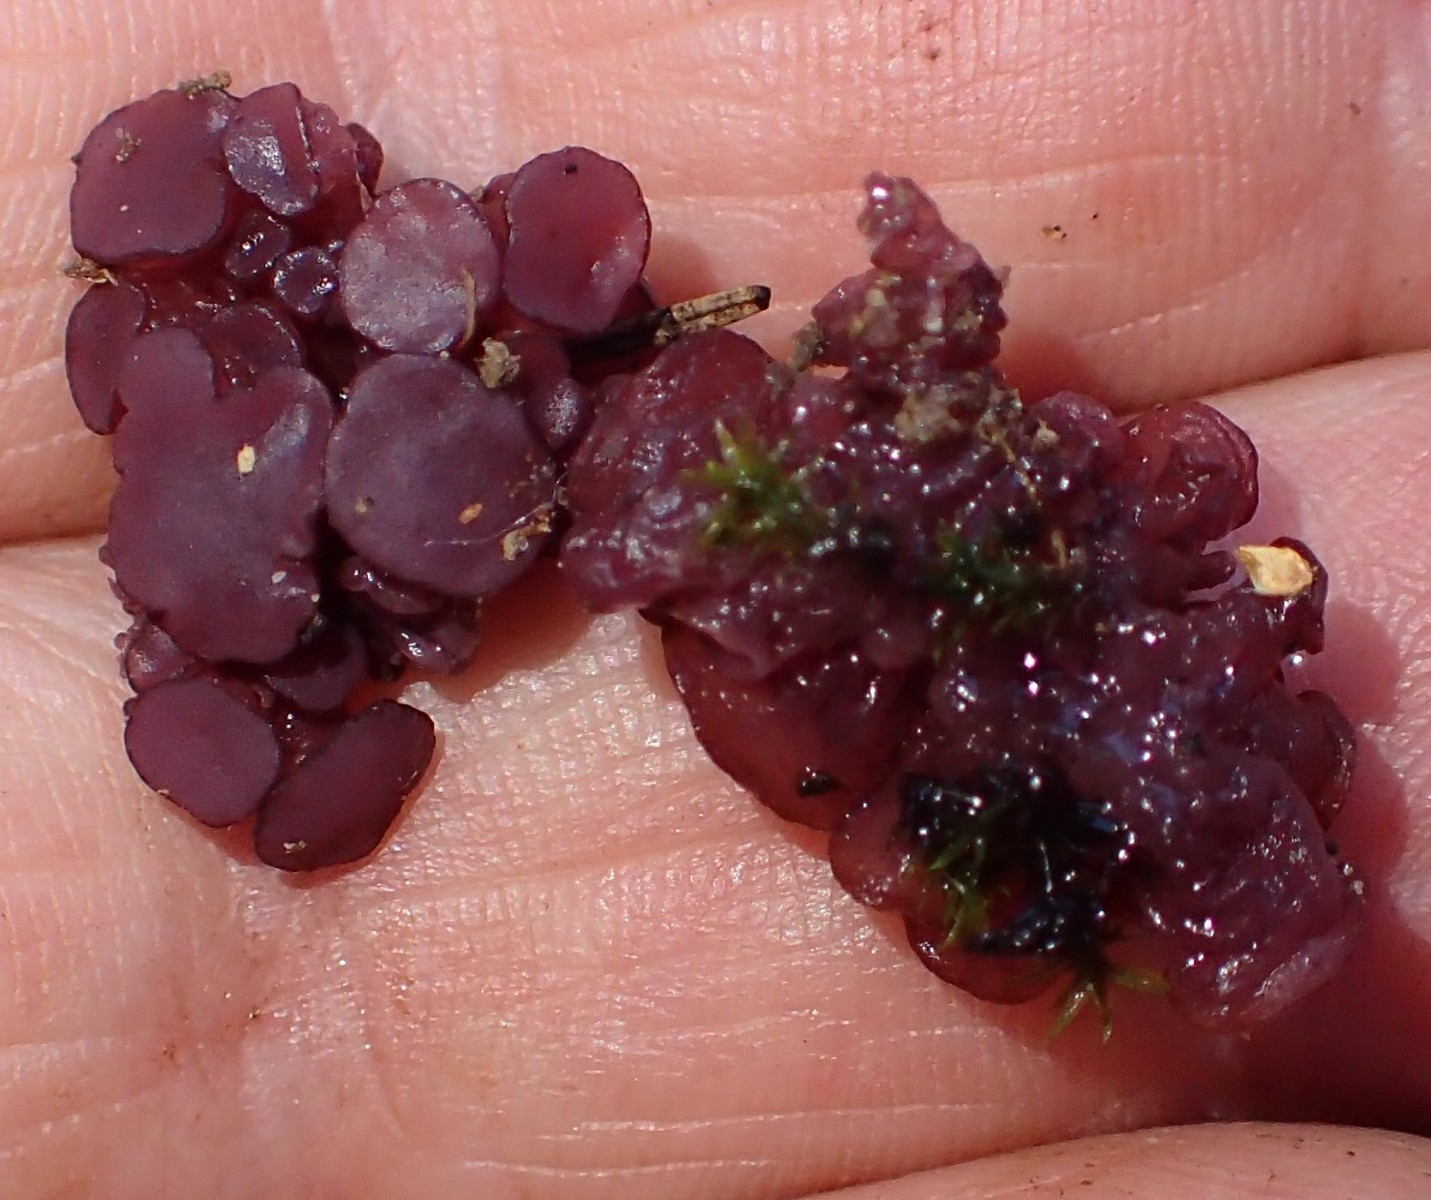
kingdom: Fungi
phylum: Ascomycota
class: Leotiomycetes
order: Helotiales
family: Gelatinodiscaceae
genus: Ascocoryne
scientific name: Ascocoryne sarcoides
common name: rødlilla sejskive
